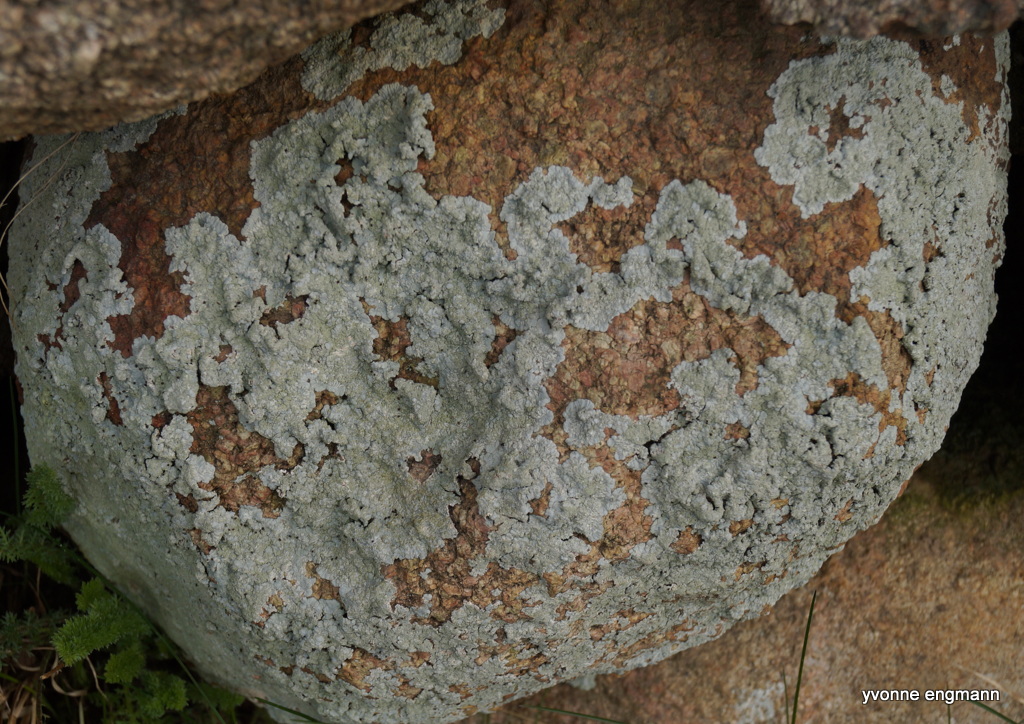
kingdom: Fungi
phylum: Ascomycota
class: Lecanoromycetes
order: Caliciales
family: Caliciaceae
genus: Diploicia
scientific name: Diploicia canescens
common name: grå støvrosetlav
